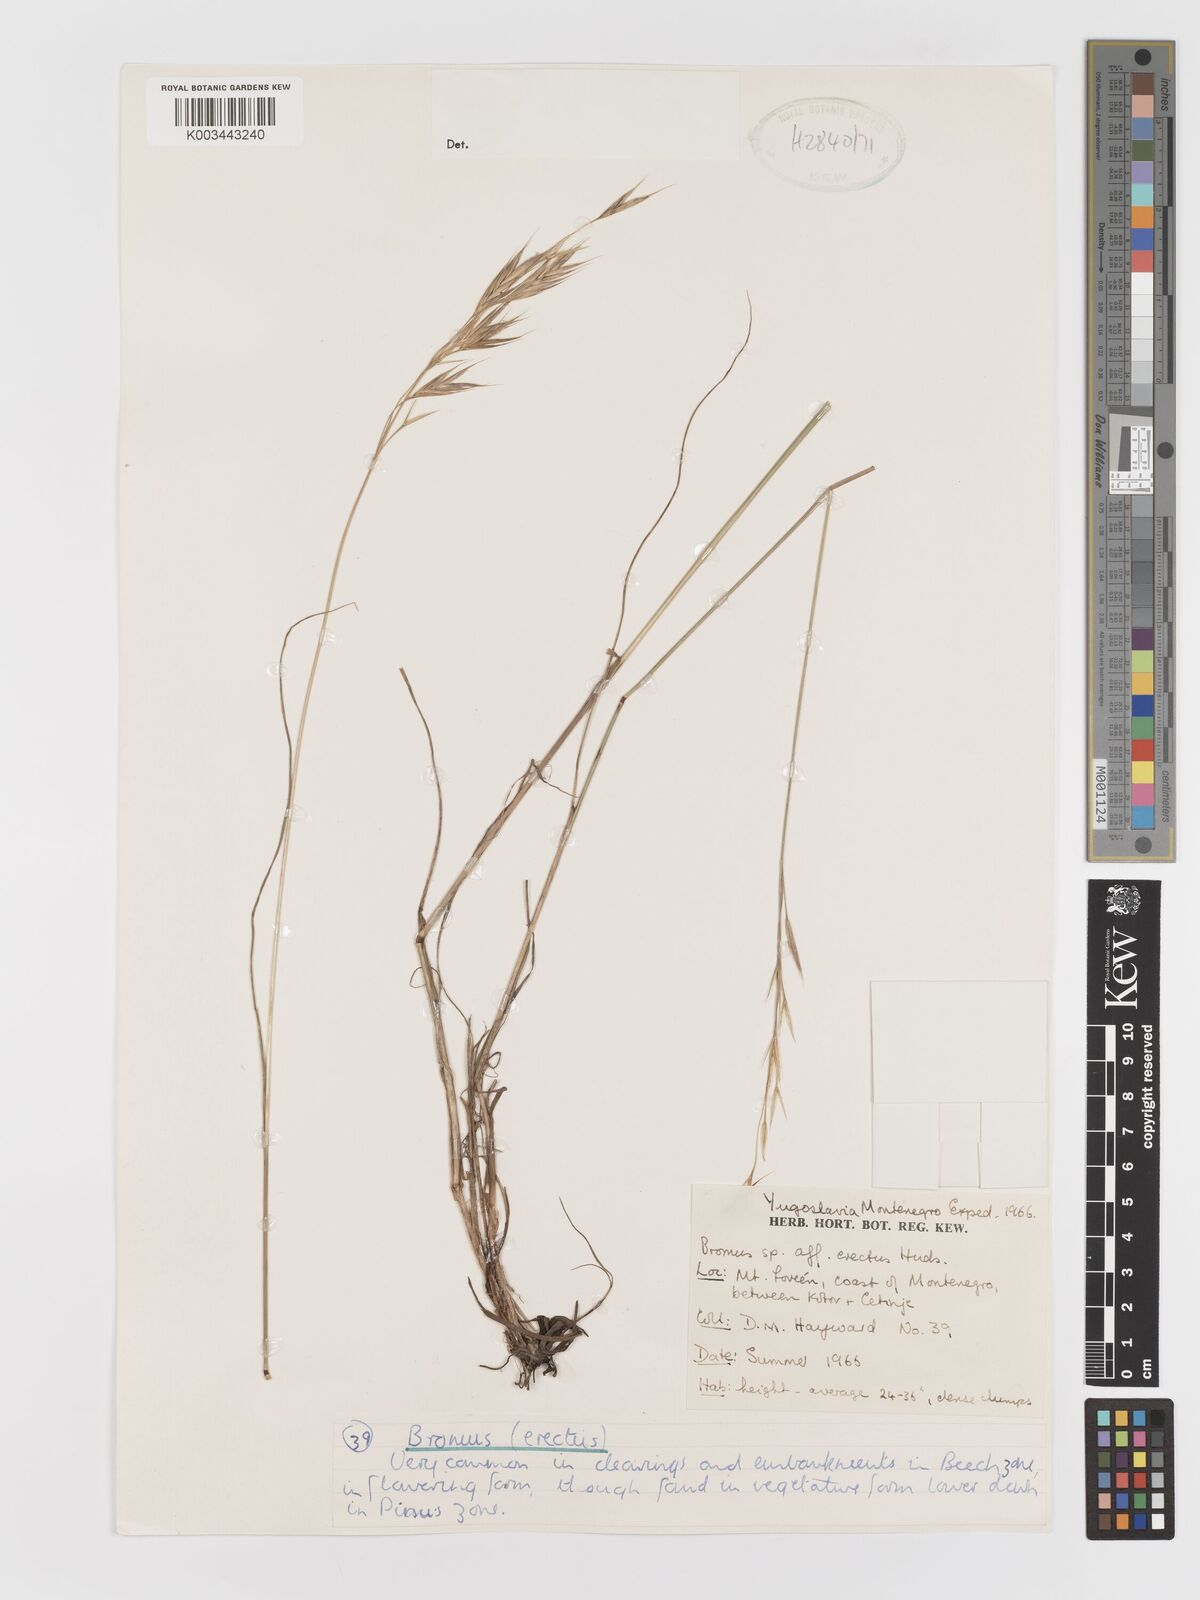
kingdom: Plantae
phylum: Tracheophyta
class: Liliopsida
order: Poales
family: Poaceae
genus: Bromus
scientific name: Bromus
